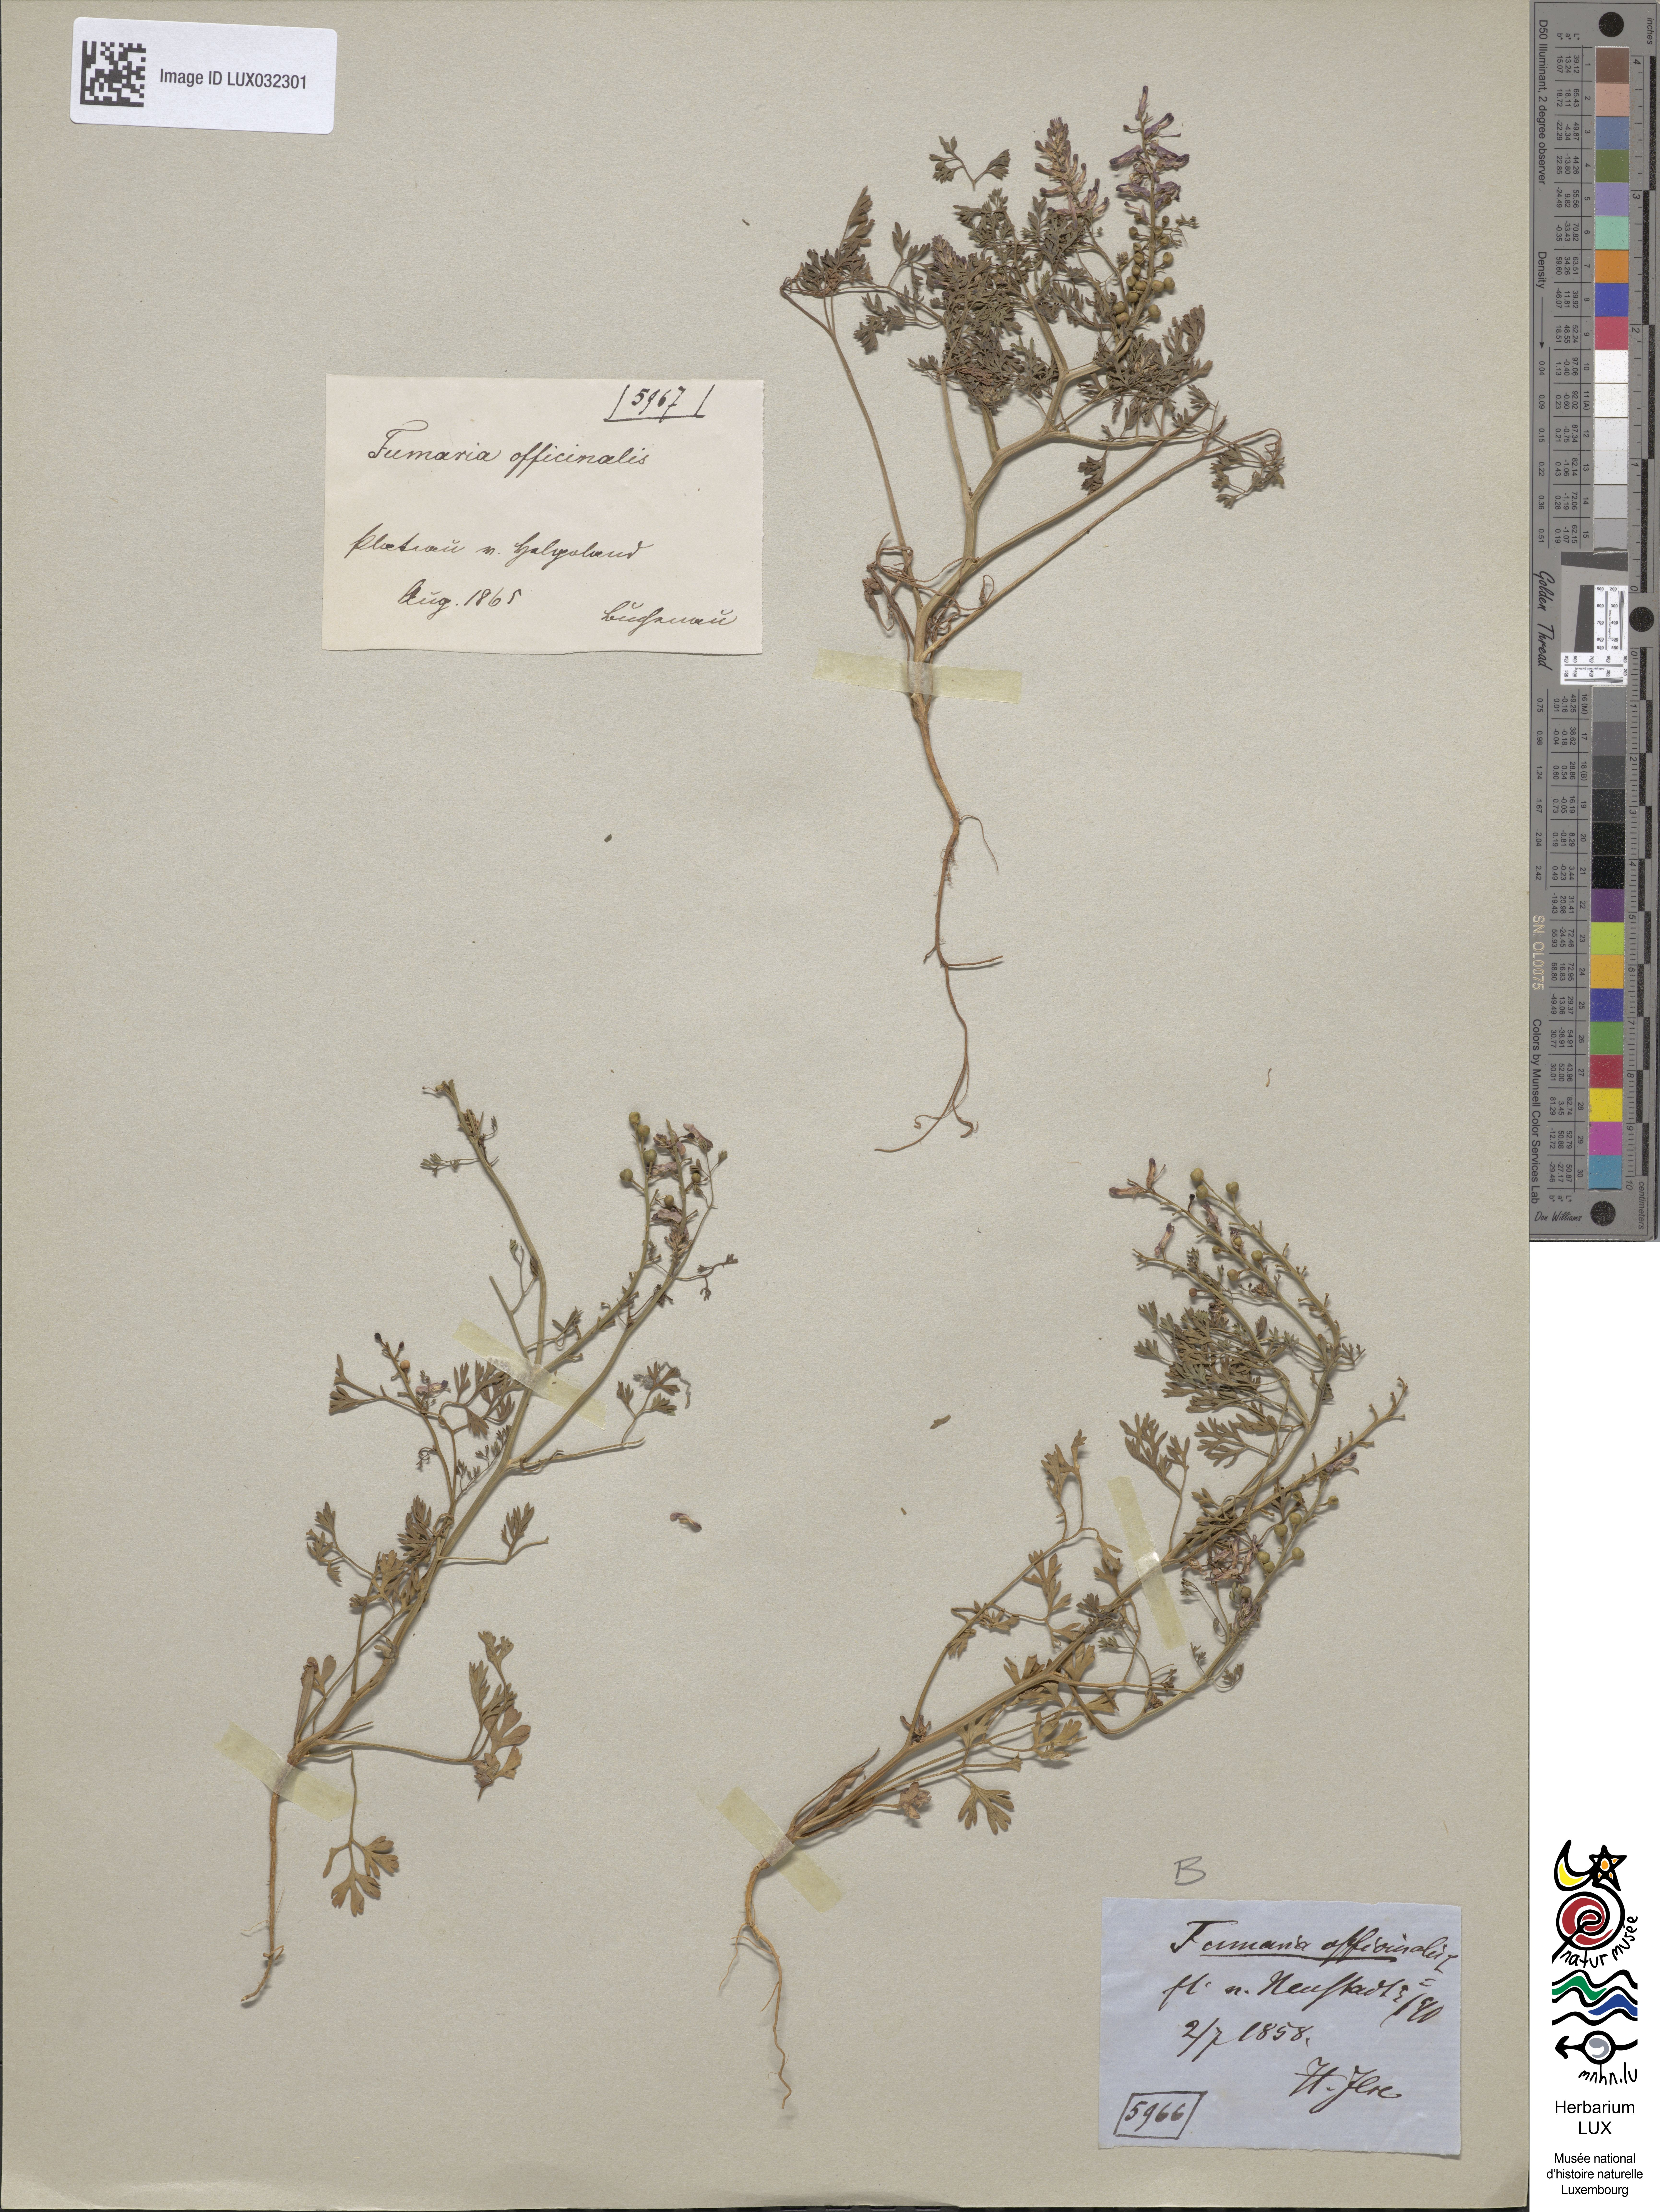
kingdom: Plantae
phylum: Tracheophyta
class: Magnoliopsida
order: Ranunculales
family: Papaveraceae
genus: Fumaria
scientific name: Fumaria officinalis
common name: Common fumitory
